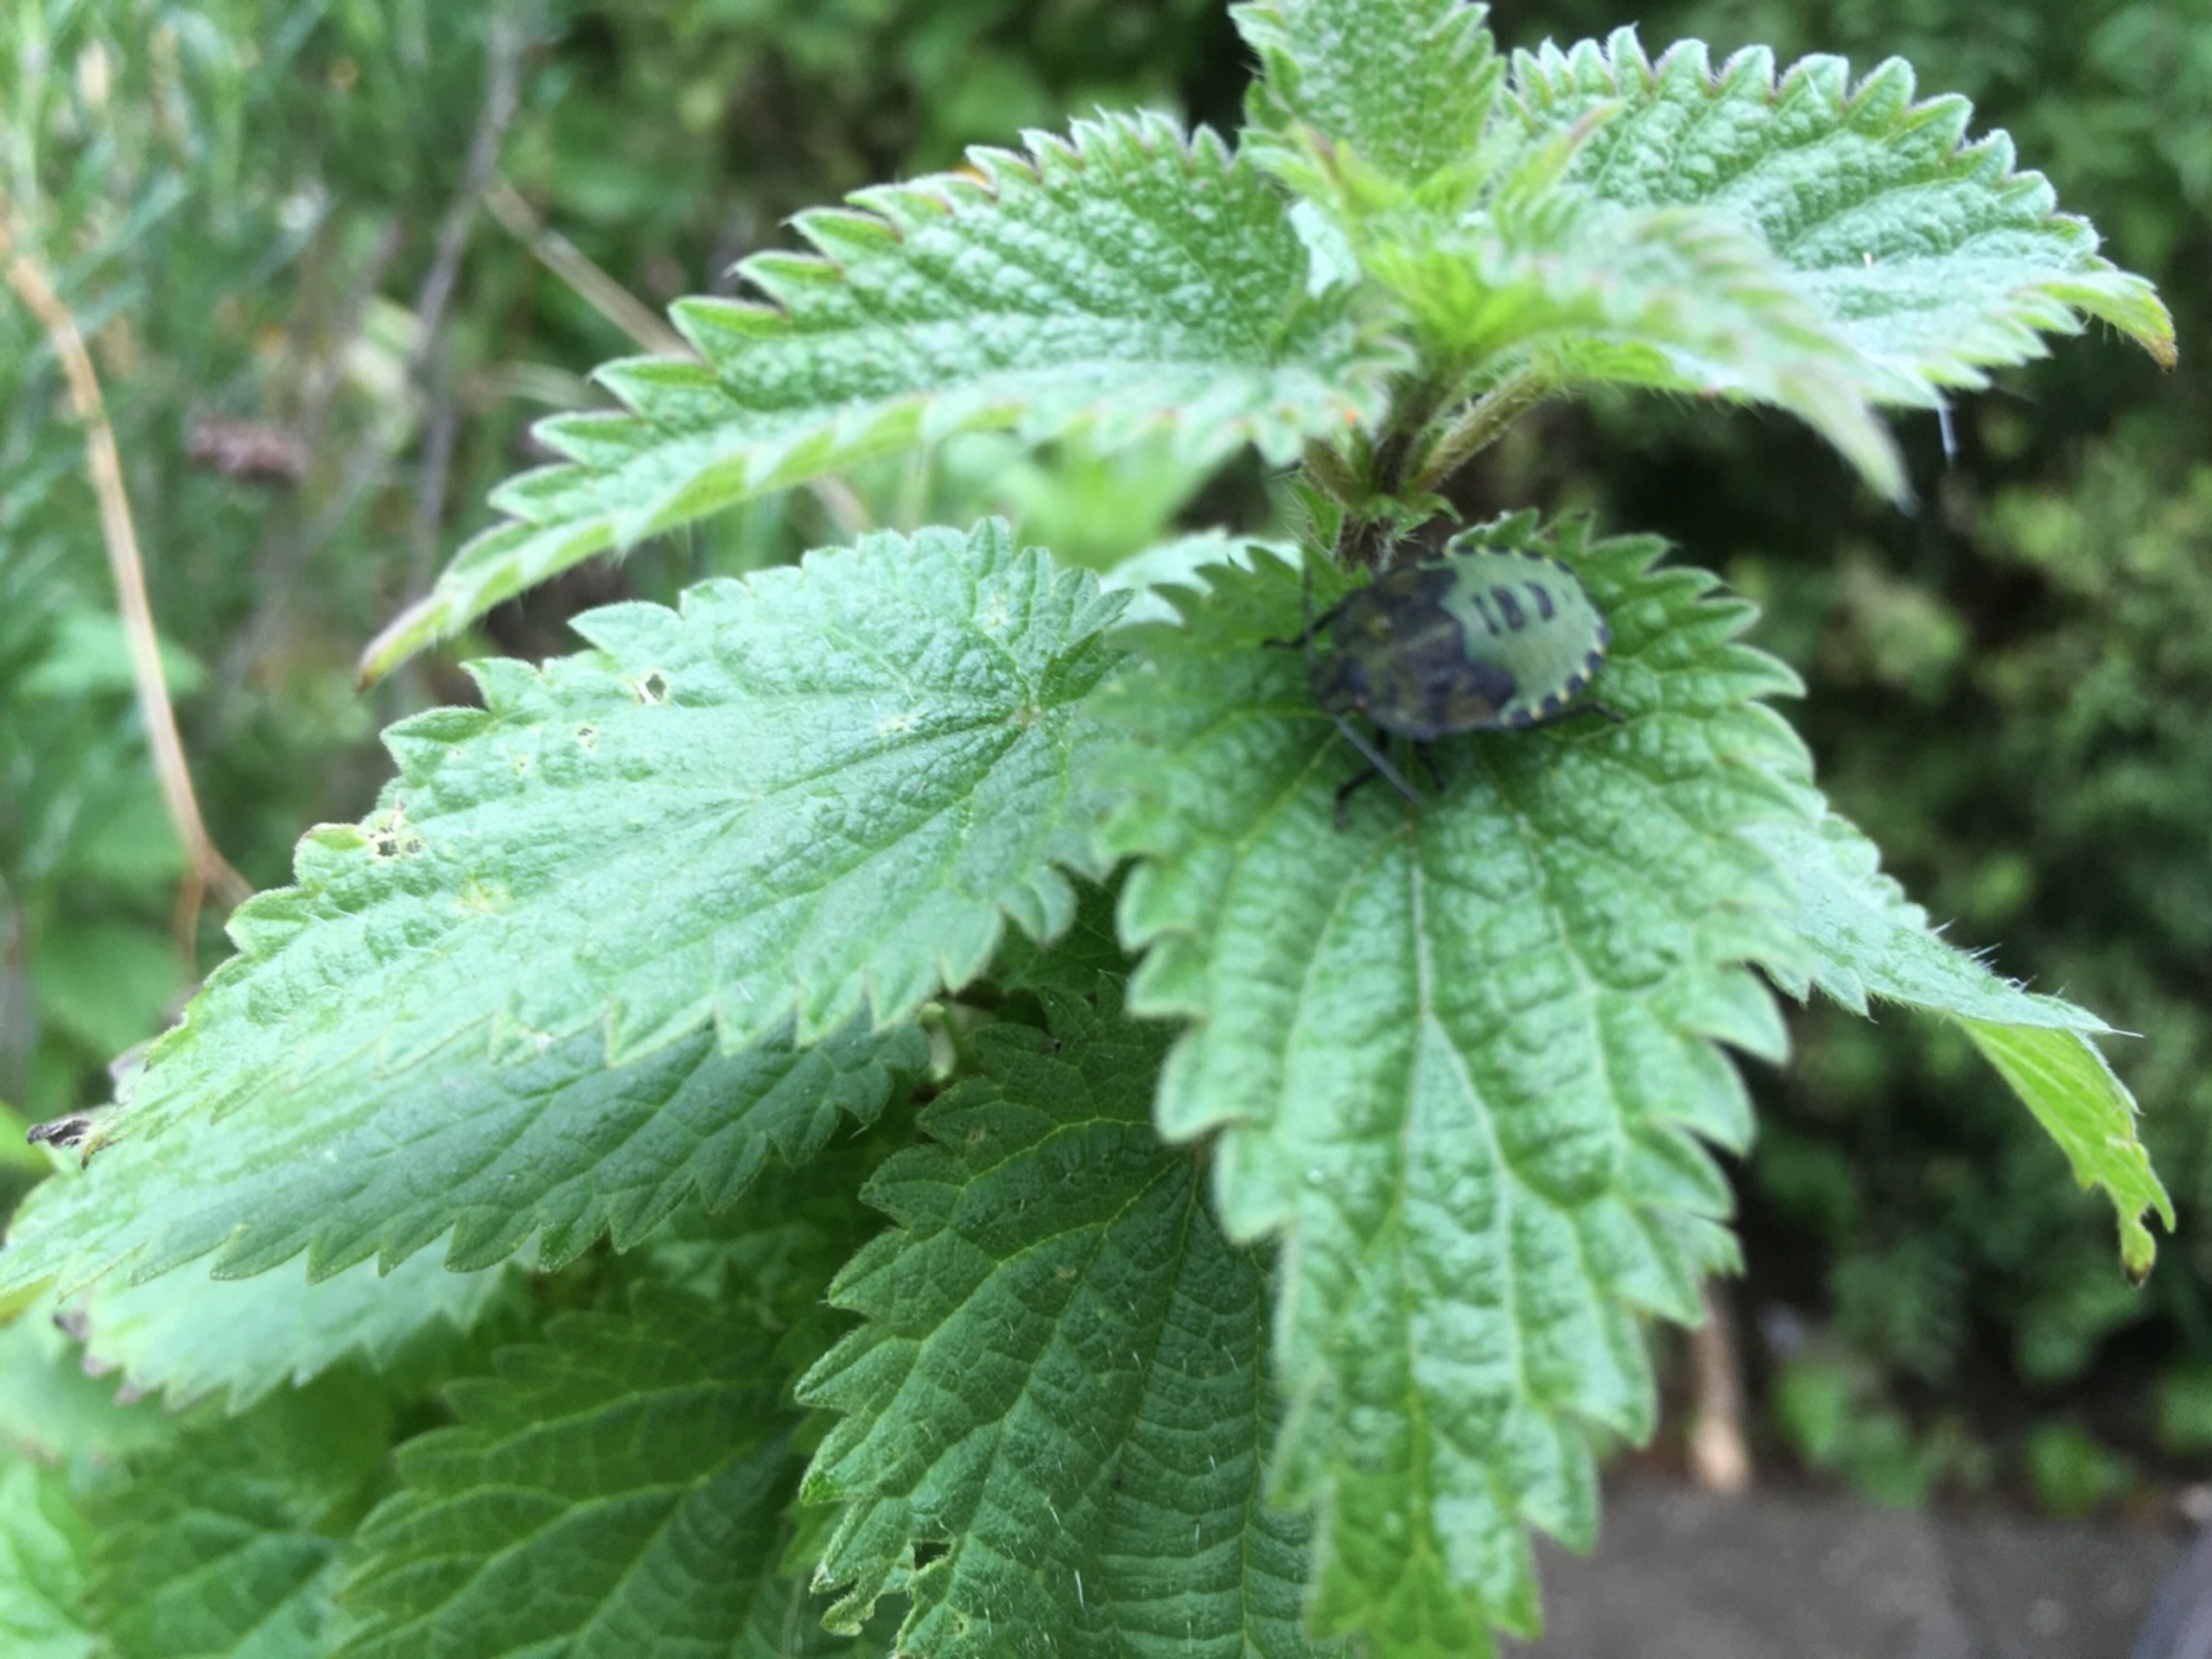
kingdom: Animalia
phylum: Arthropoda
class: Insecta
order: Hemiptera
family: Pentatomidae
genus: Palomena
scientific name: Palomena prasina
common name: Grøn bredtæge
